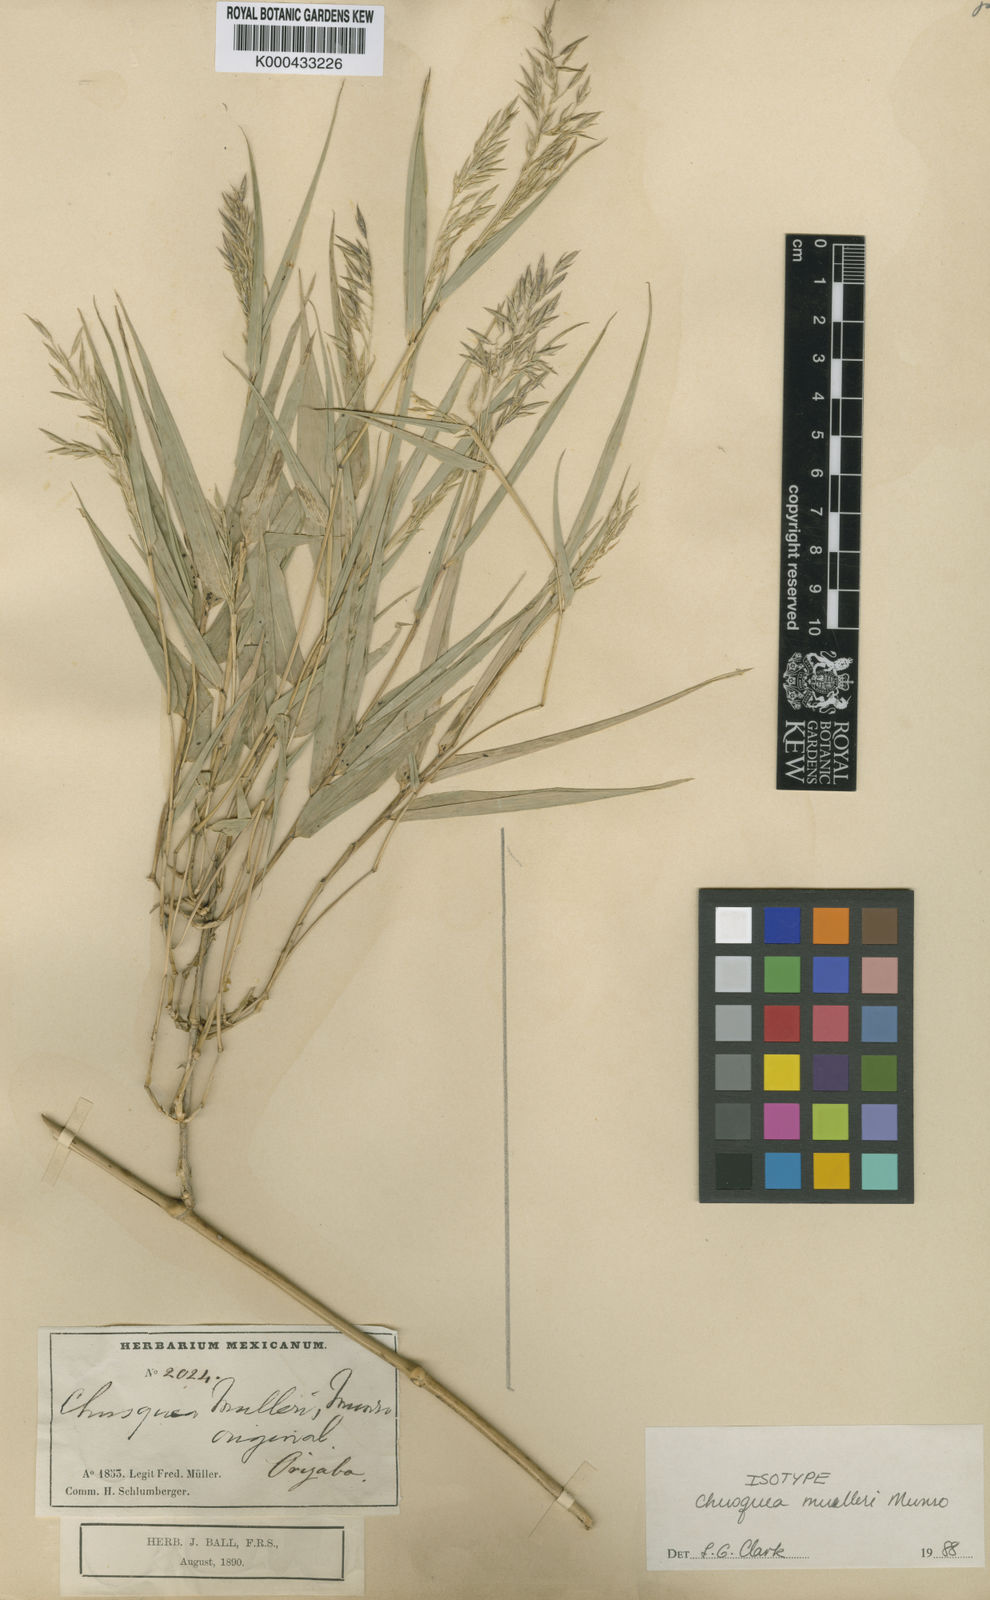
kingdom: Plantae
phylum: Tracheophyta
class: Liliopsida
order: Poales
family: Poaceae
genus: Chusquea
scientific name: Chusquea mulleri
